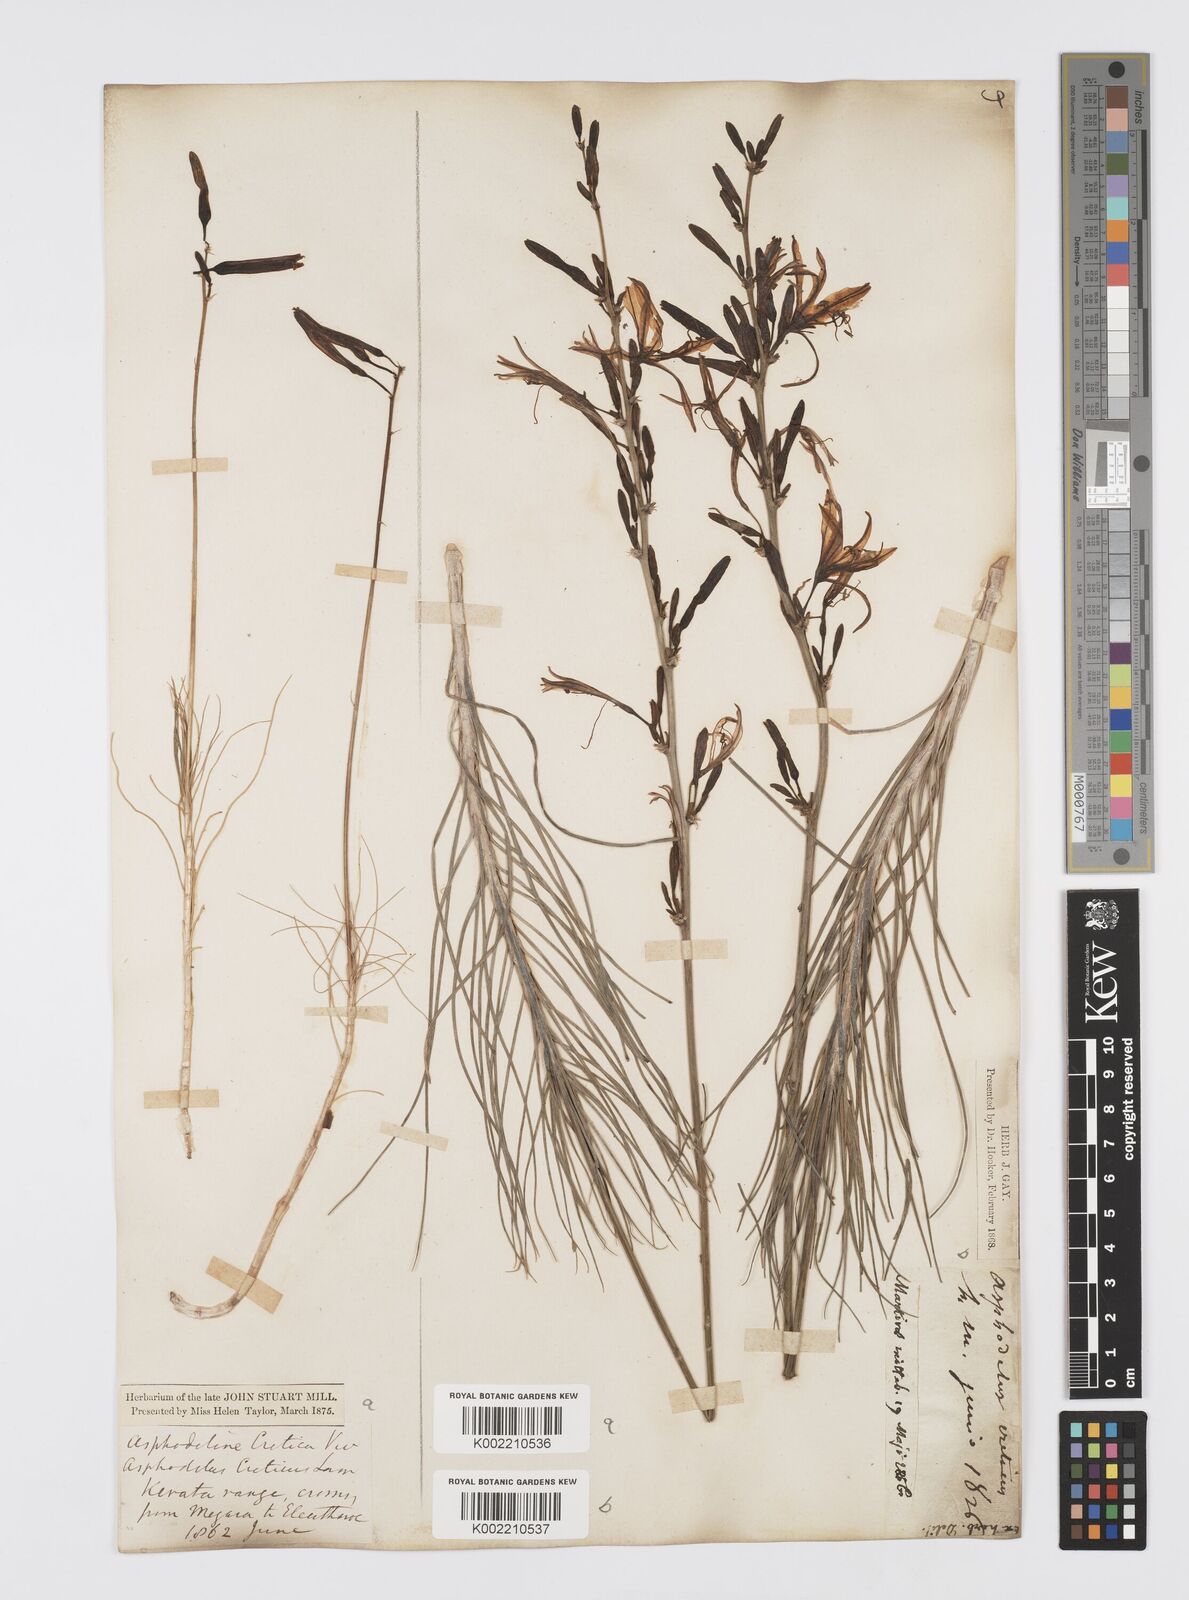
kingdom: Plantae
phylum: Tracheophyta
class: Liliopsida
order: Asparagales
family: Asphodelaceae
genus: Asphodeline
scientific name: Asphodeline liburnica
